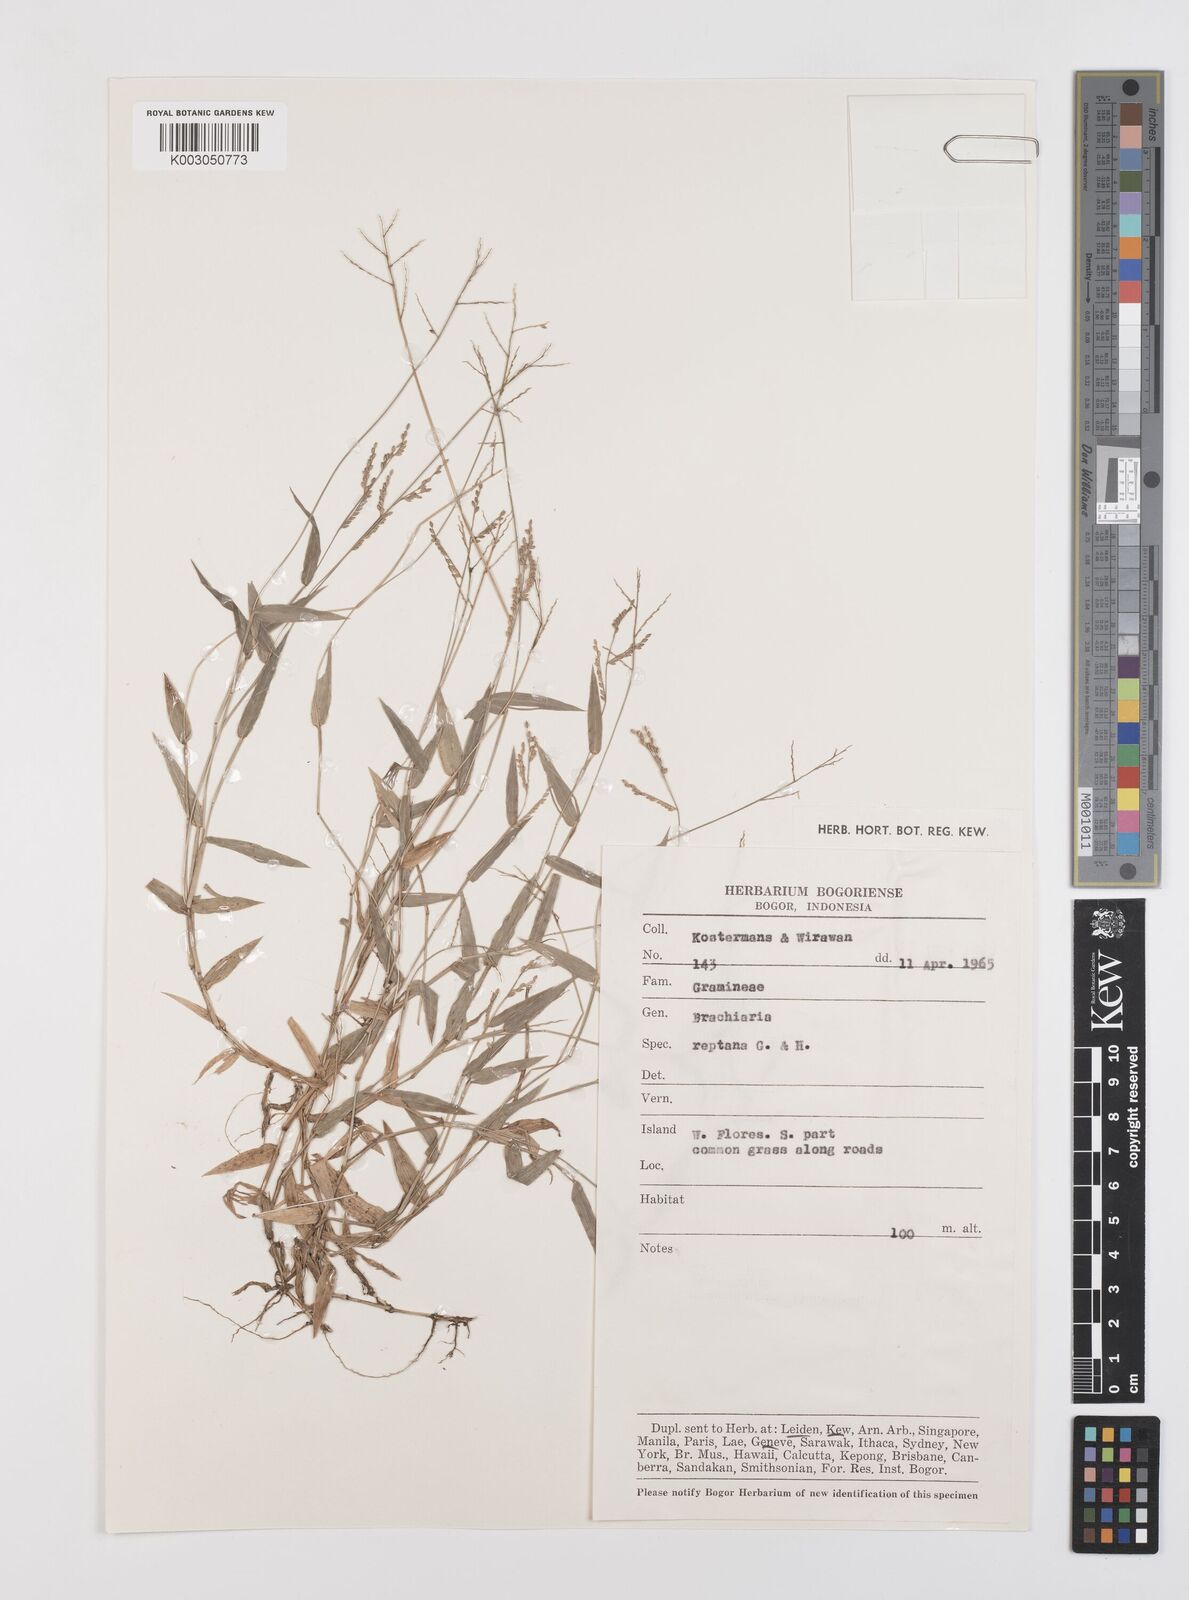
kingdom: Plantae
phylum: Tracheophyta
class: Liliopsida
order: Poales
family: Poaceae
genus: Urochloa
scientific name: Urochloa reptans
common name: Sprawling signalgrass
